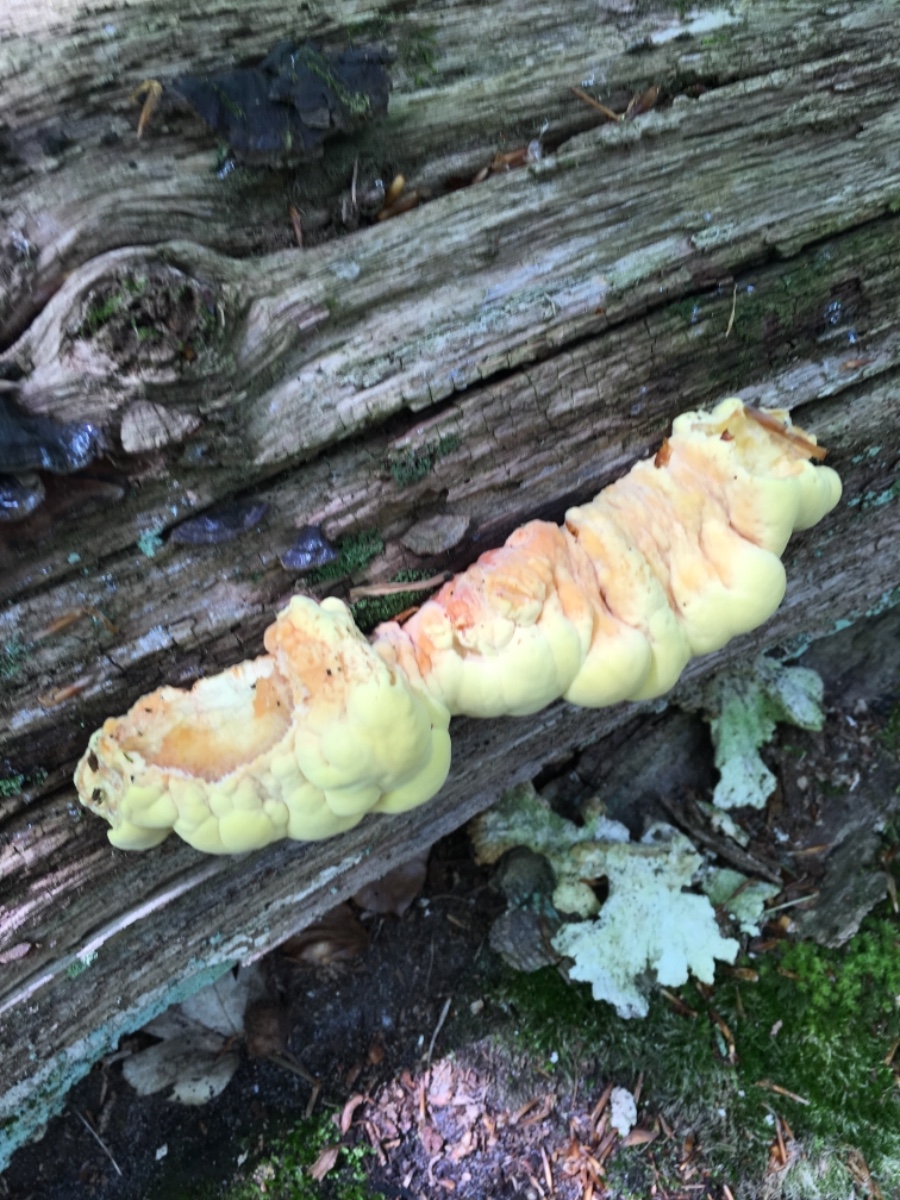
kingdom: Fungi
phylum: Basidiomycota
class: Agaricomycetes
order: Polyporales
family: Laetiporaceae
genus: Laetiporus
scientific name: Laetiporus sulphureus
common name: svovlporesvamp
